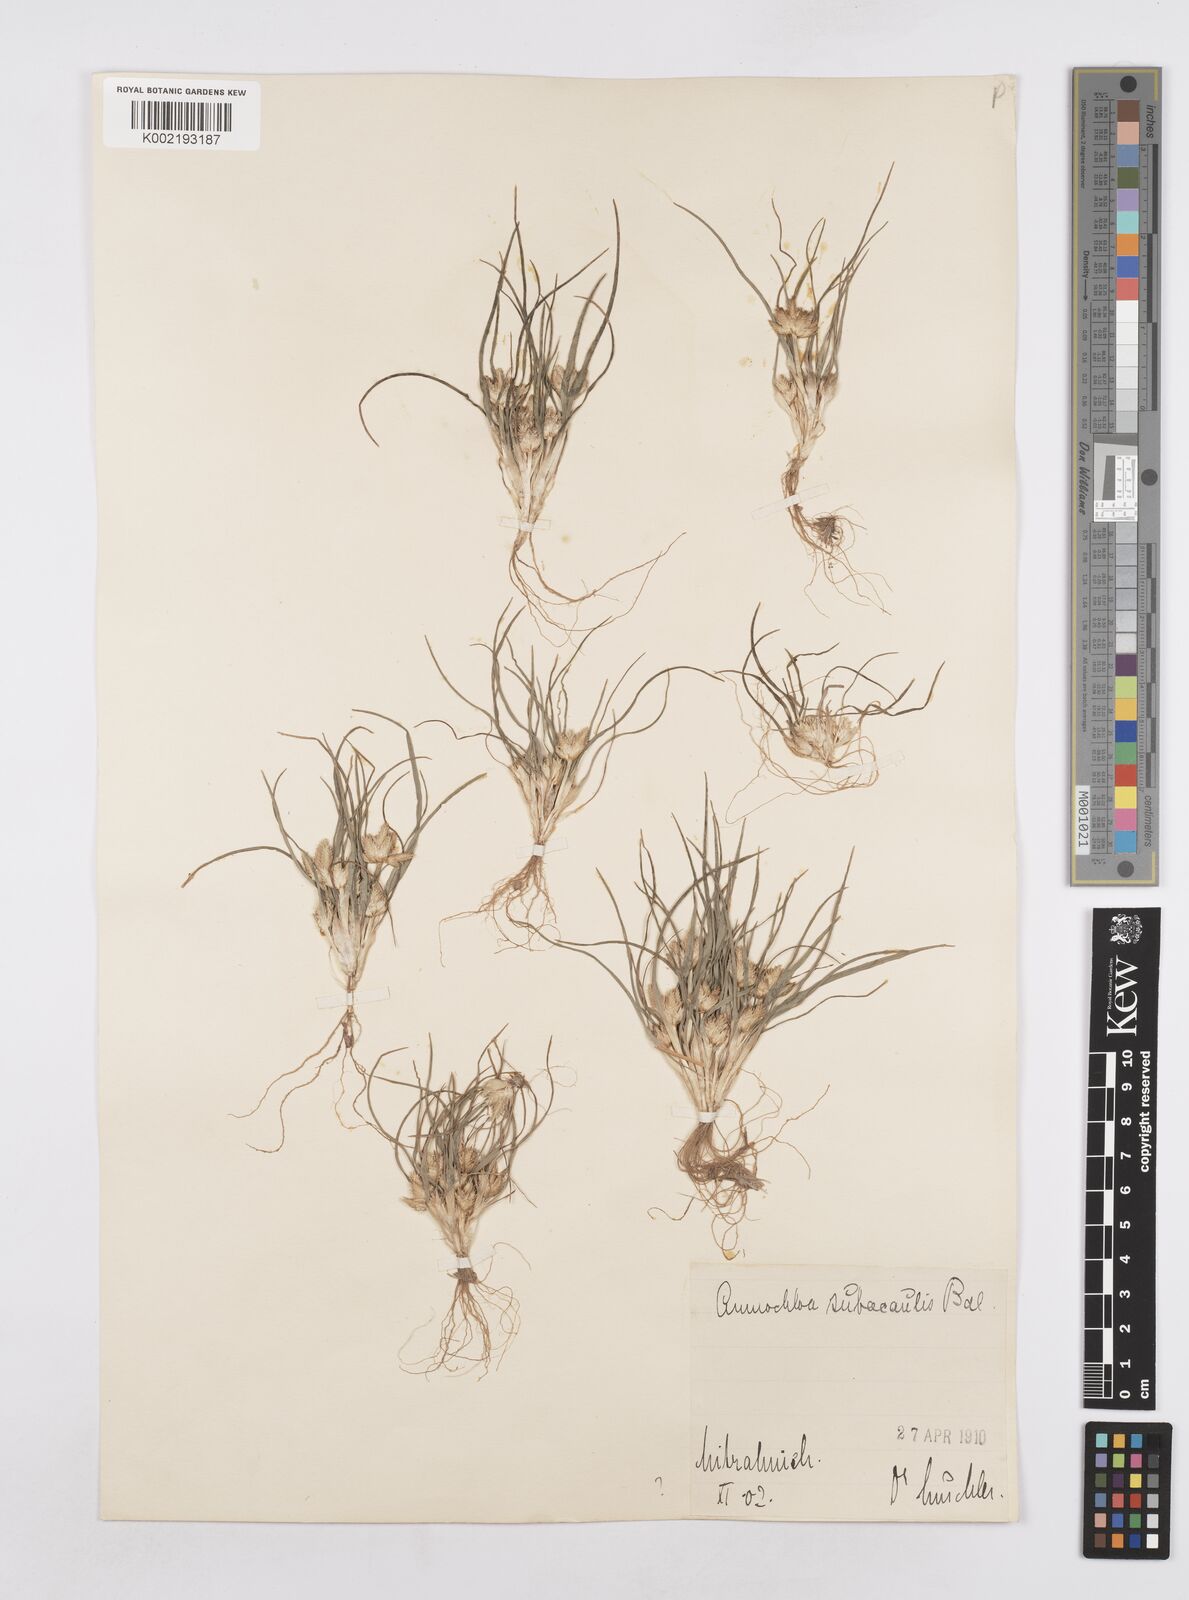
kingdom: Plantae
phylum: Tracheophyta
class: Liliopsida
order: Poales
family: Poaceae
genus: Ammochloa
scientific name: Ammochloa palaestina
